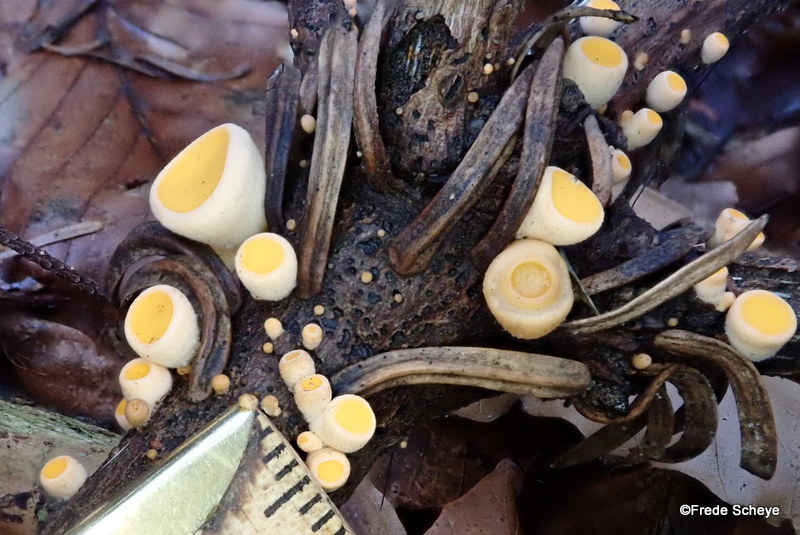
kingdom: Fungi
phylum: Ascomycota
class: Pezizomycetes
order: Pezizales
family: Sarcoscyphaceae
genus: Pithya
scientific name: Pithya vulgaris
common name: stor dukatbæger
